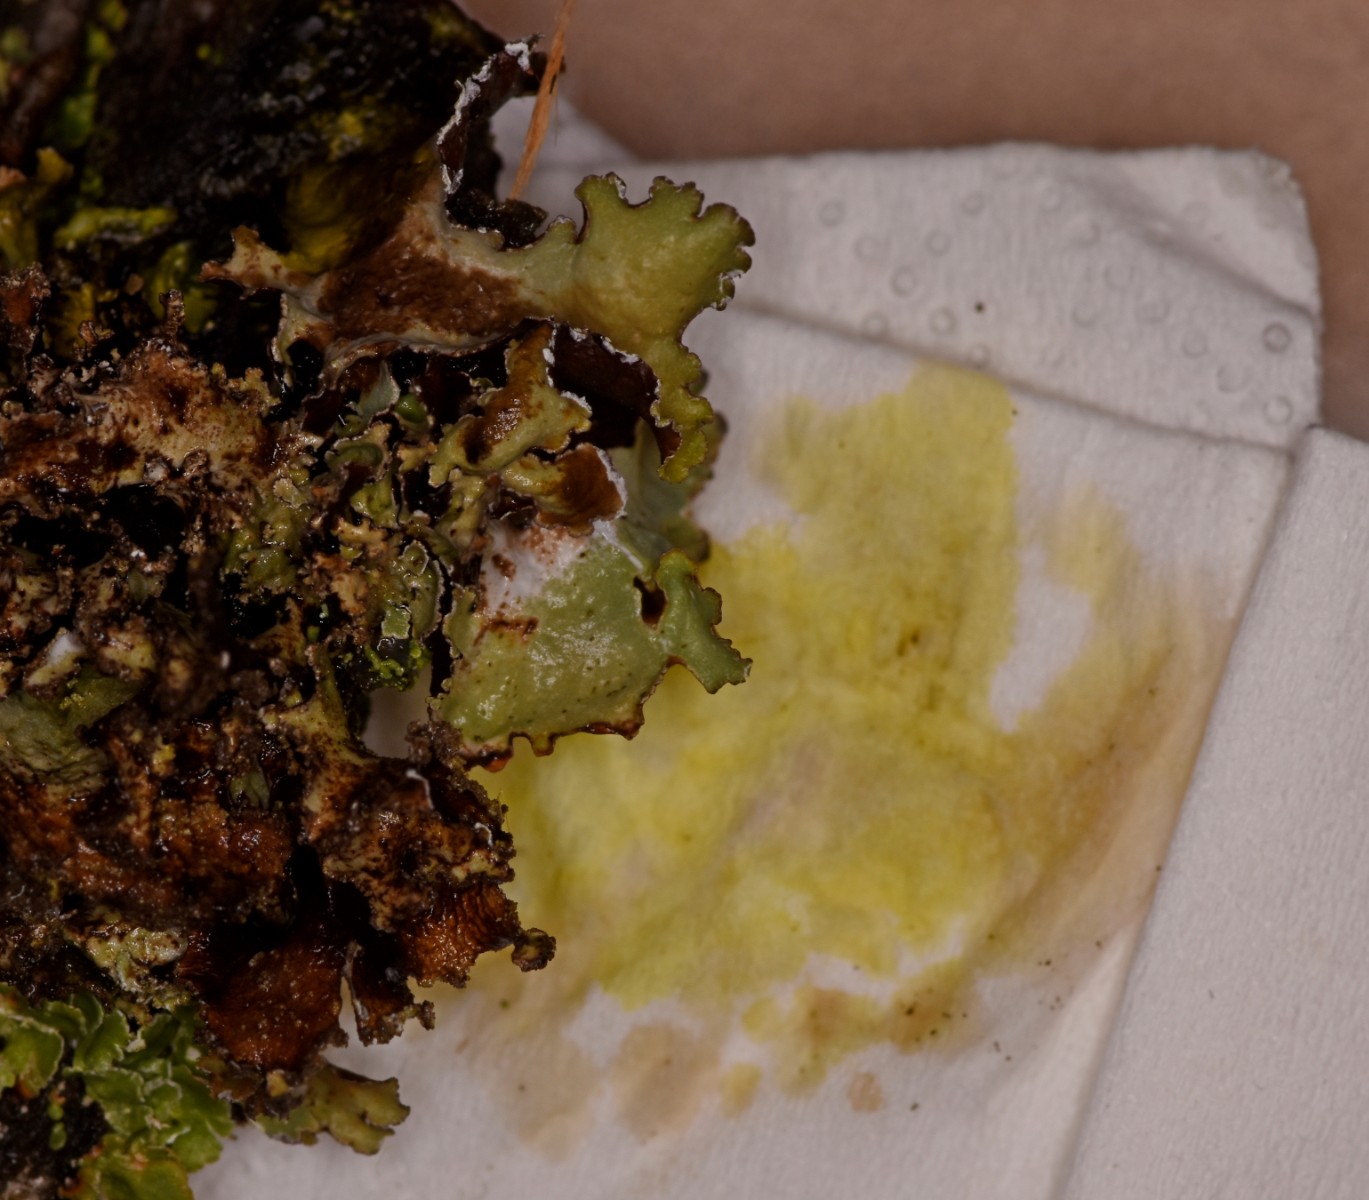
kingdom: Fungi
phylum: Ascomycota
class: Lecanoromycetes
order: Lecanorales
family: Parmeliaceae
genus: Platismatia
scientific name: Platismatia glauca
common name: blågrå papirlav
